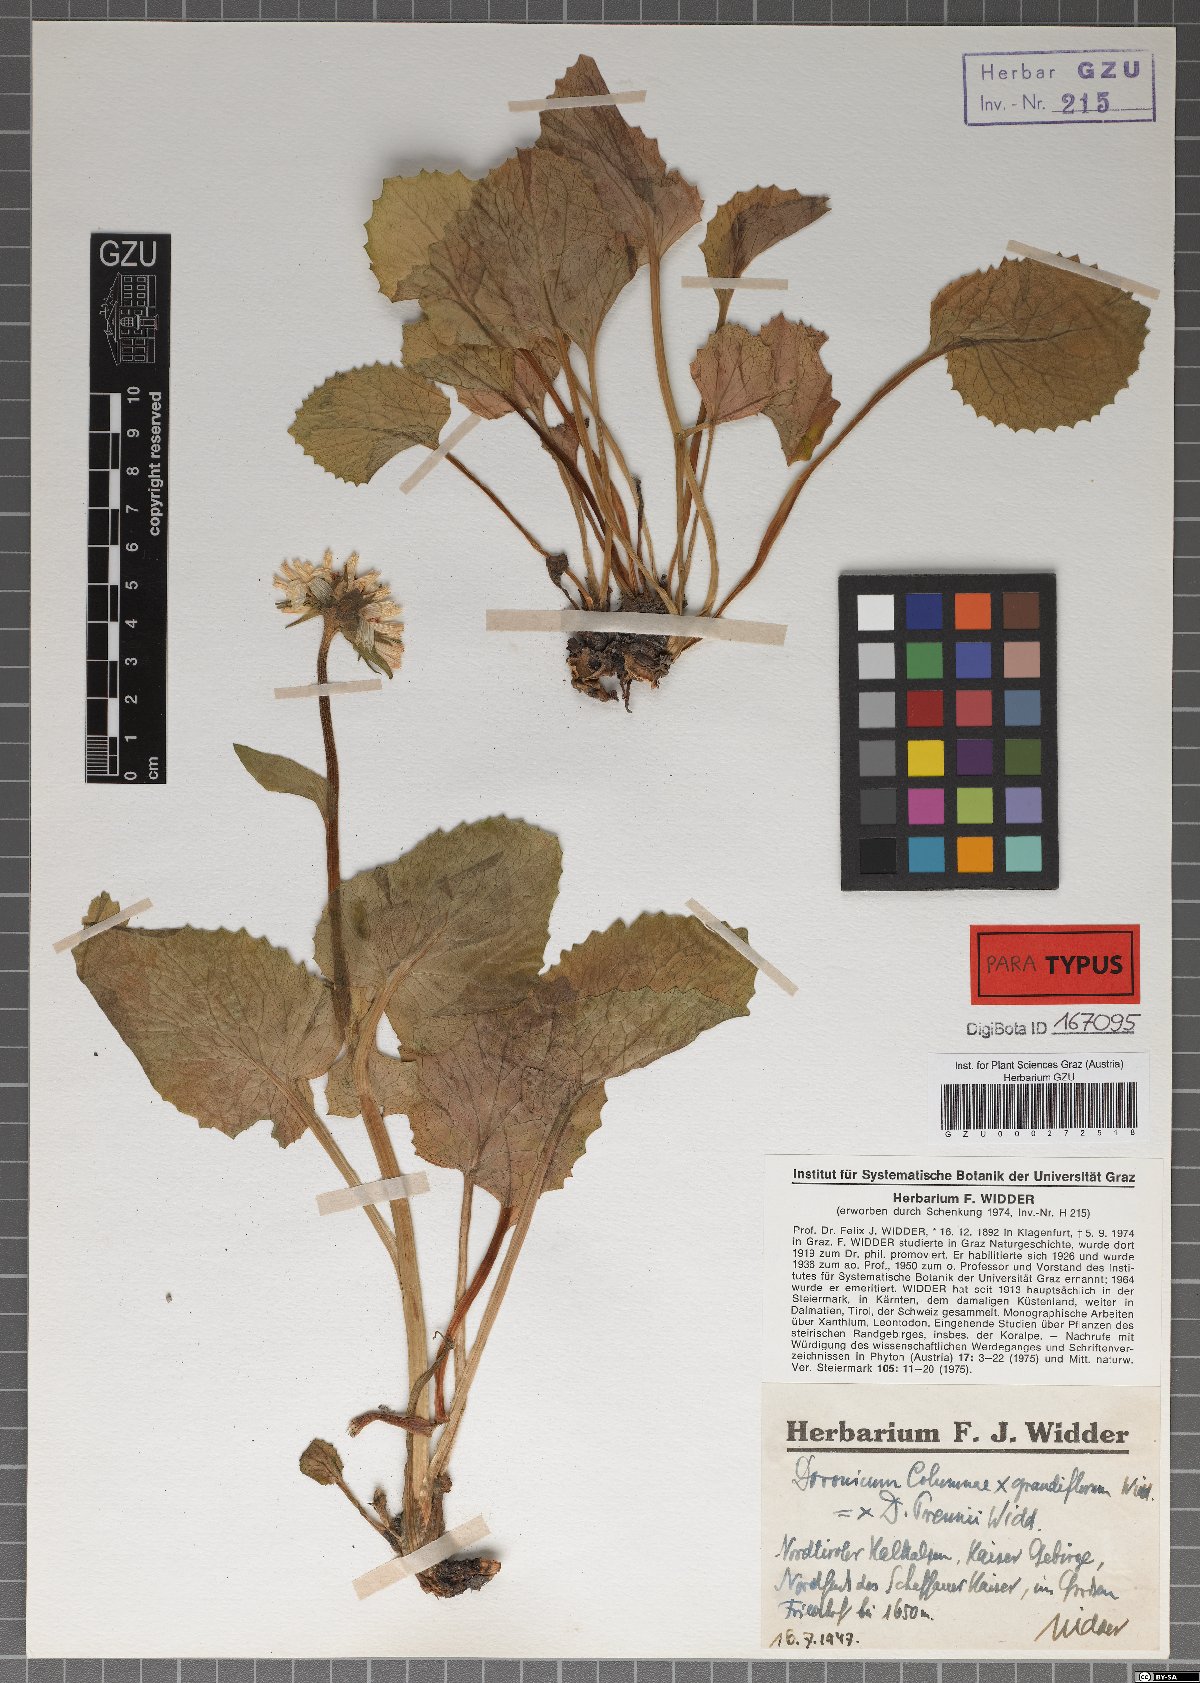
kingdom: Plantae
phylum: Tracheophyta
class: Magnoliopsida
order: Asterales
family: Asteraceae
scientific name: Asteraceae
